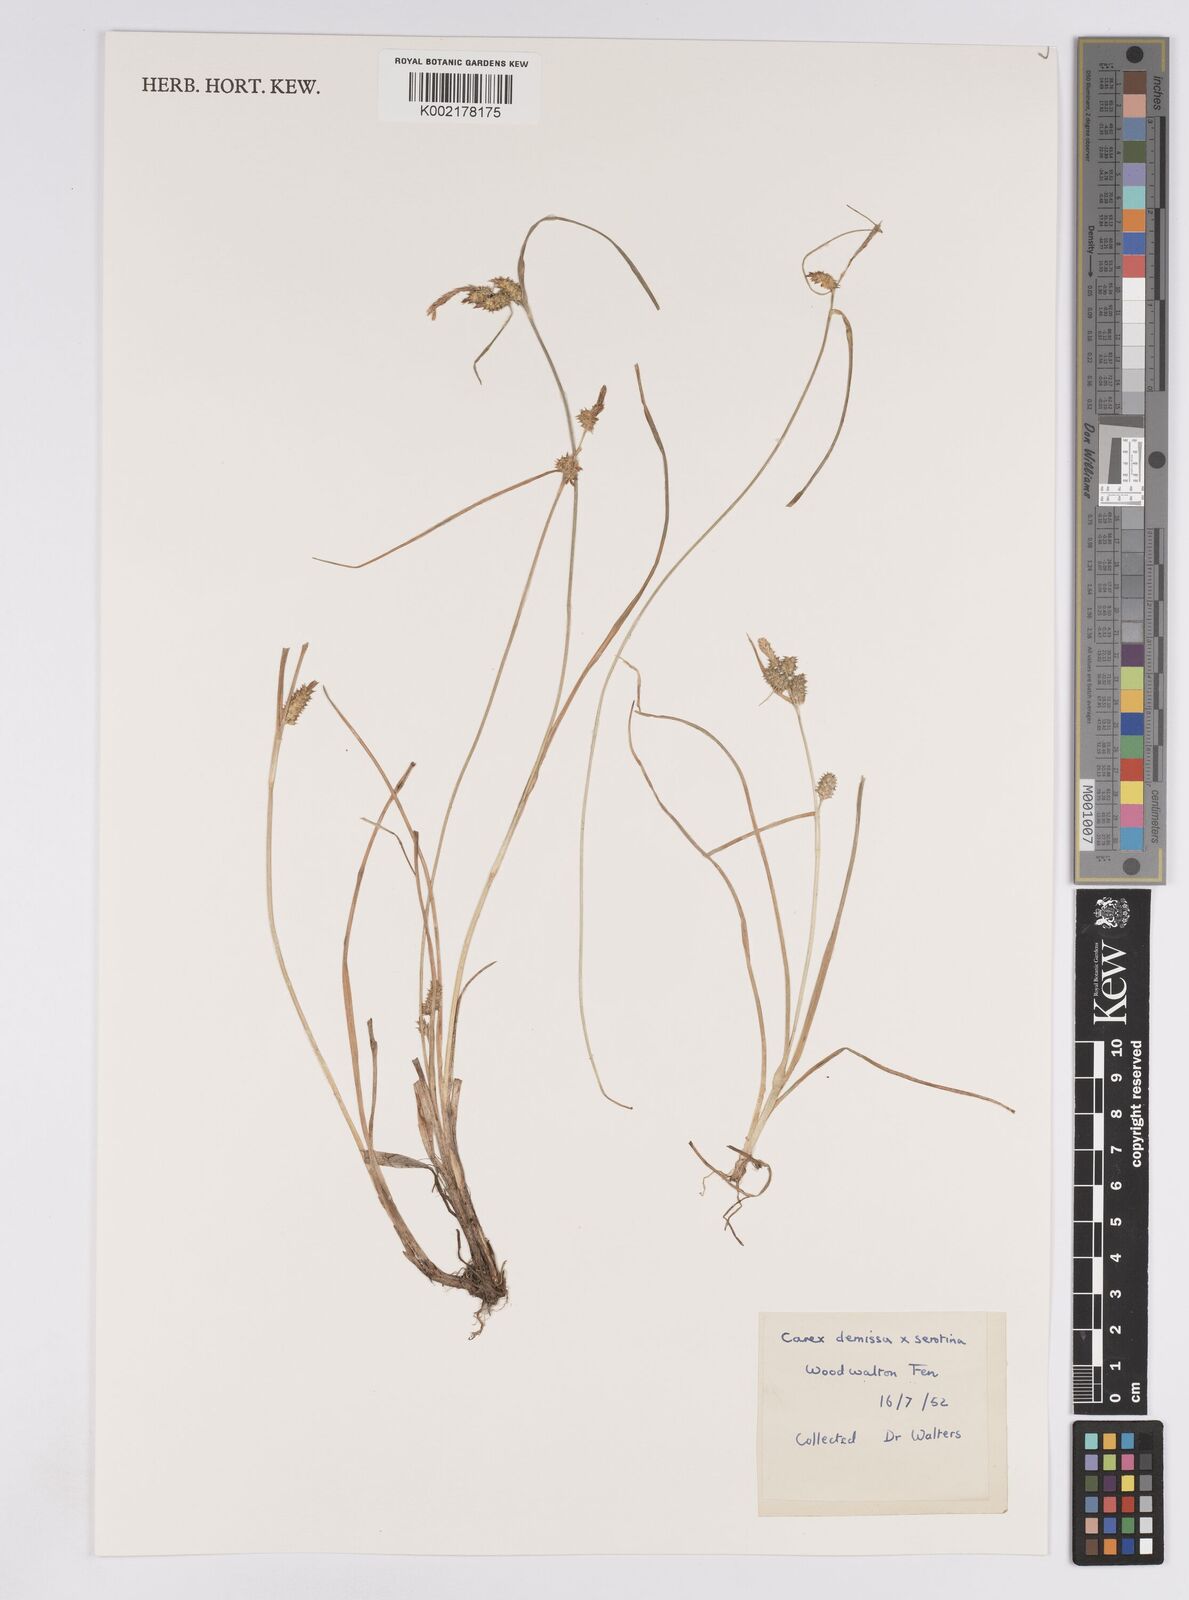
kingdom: Plantae
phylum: Tracheophyta
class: Liliopsida
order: Poales
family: Cyperaceae
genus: Carex
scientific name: Carex demissa
